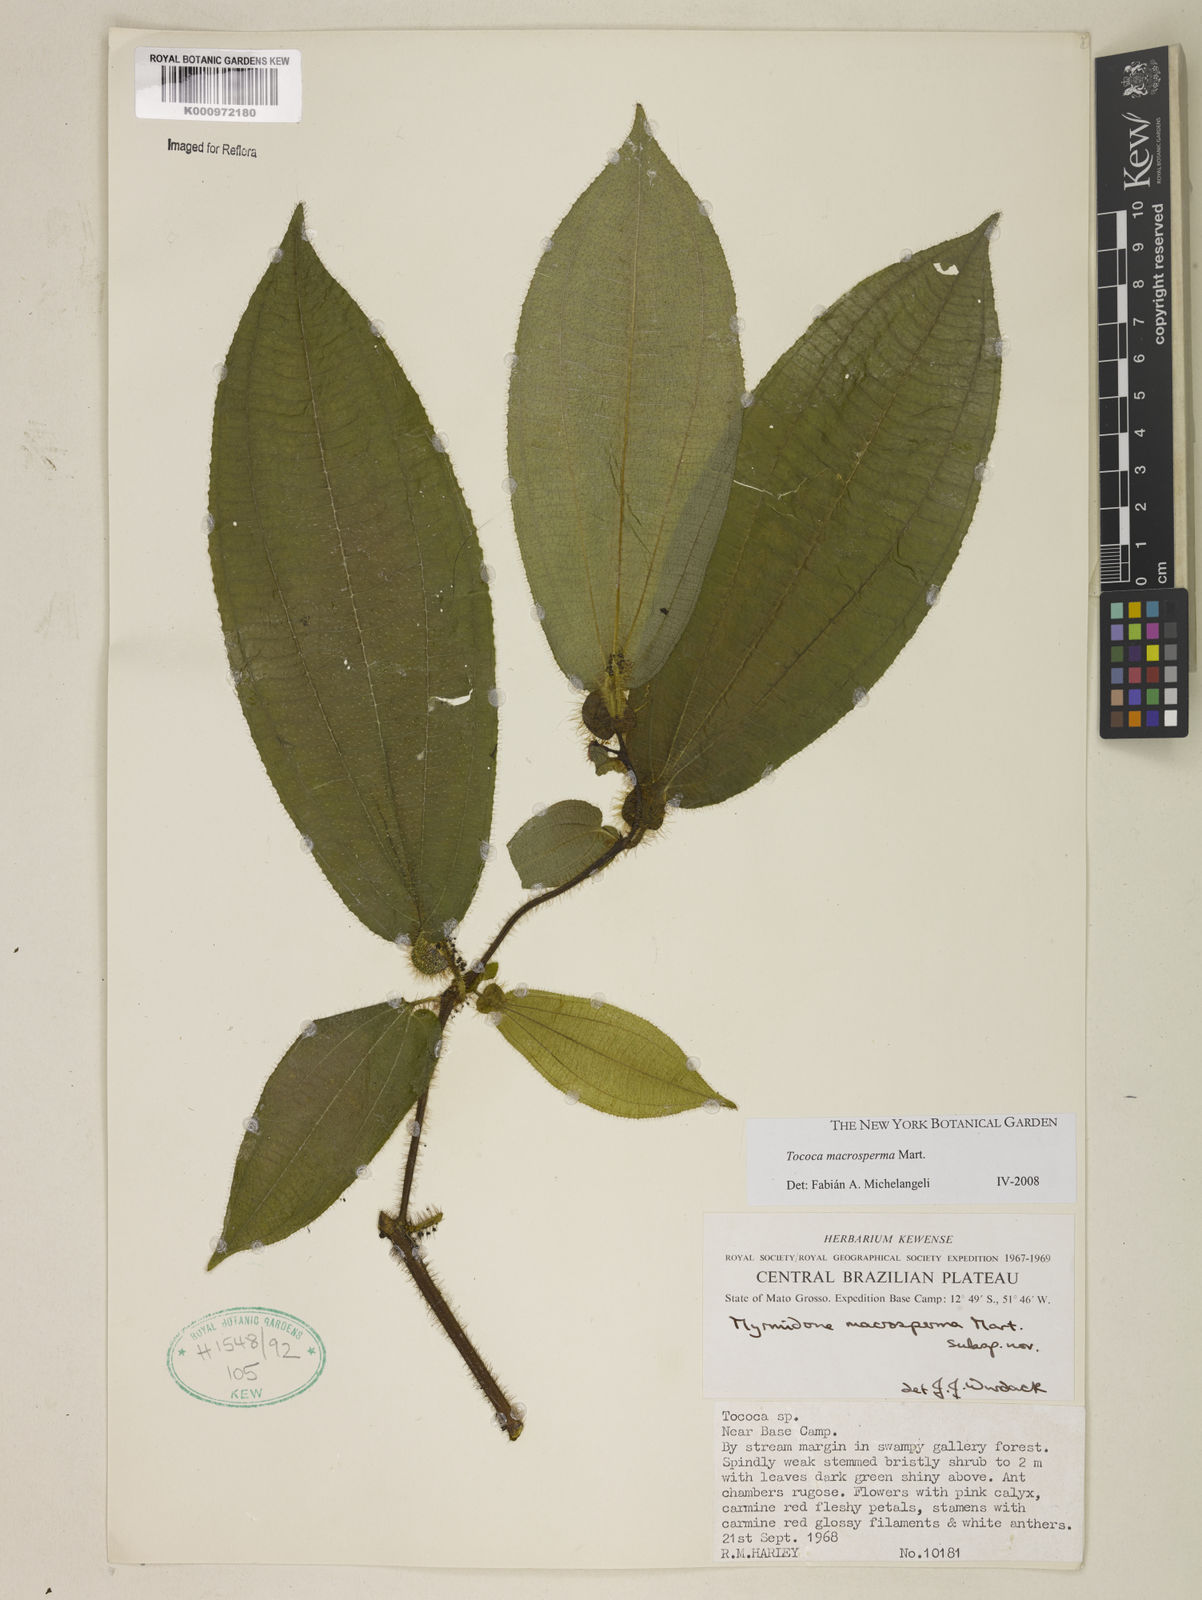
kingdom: Plantae
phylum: Tracheophyta
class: Magnoliopsida
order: Myrtales
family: Melastomataceae
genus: Miconia
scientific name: Miconia macrosperma
